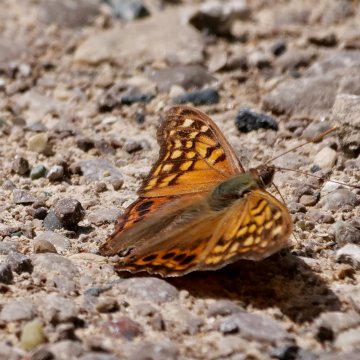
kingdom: Animalia
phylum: Arthropoda
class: Insecta
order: Lepidoptera
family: Nymphalidae
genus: Asterocampa
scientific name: Asterocampa clyton
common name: Tawny Emperor
